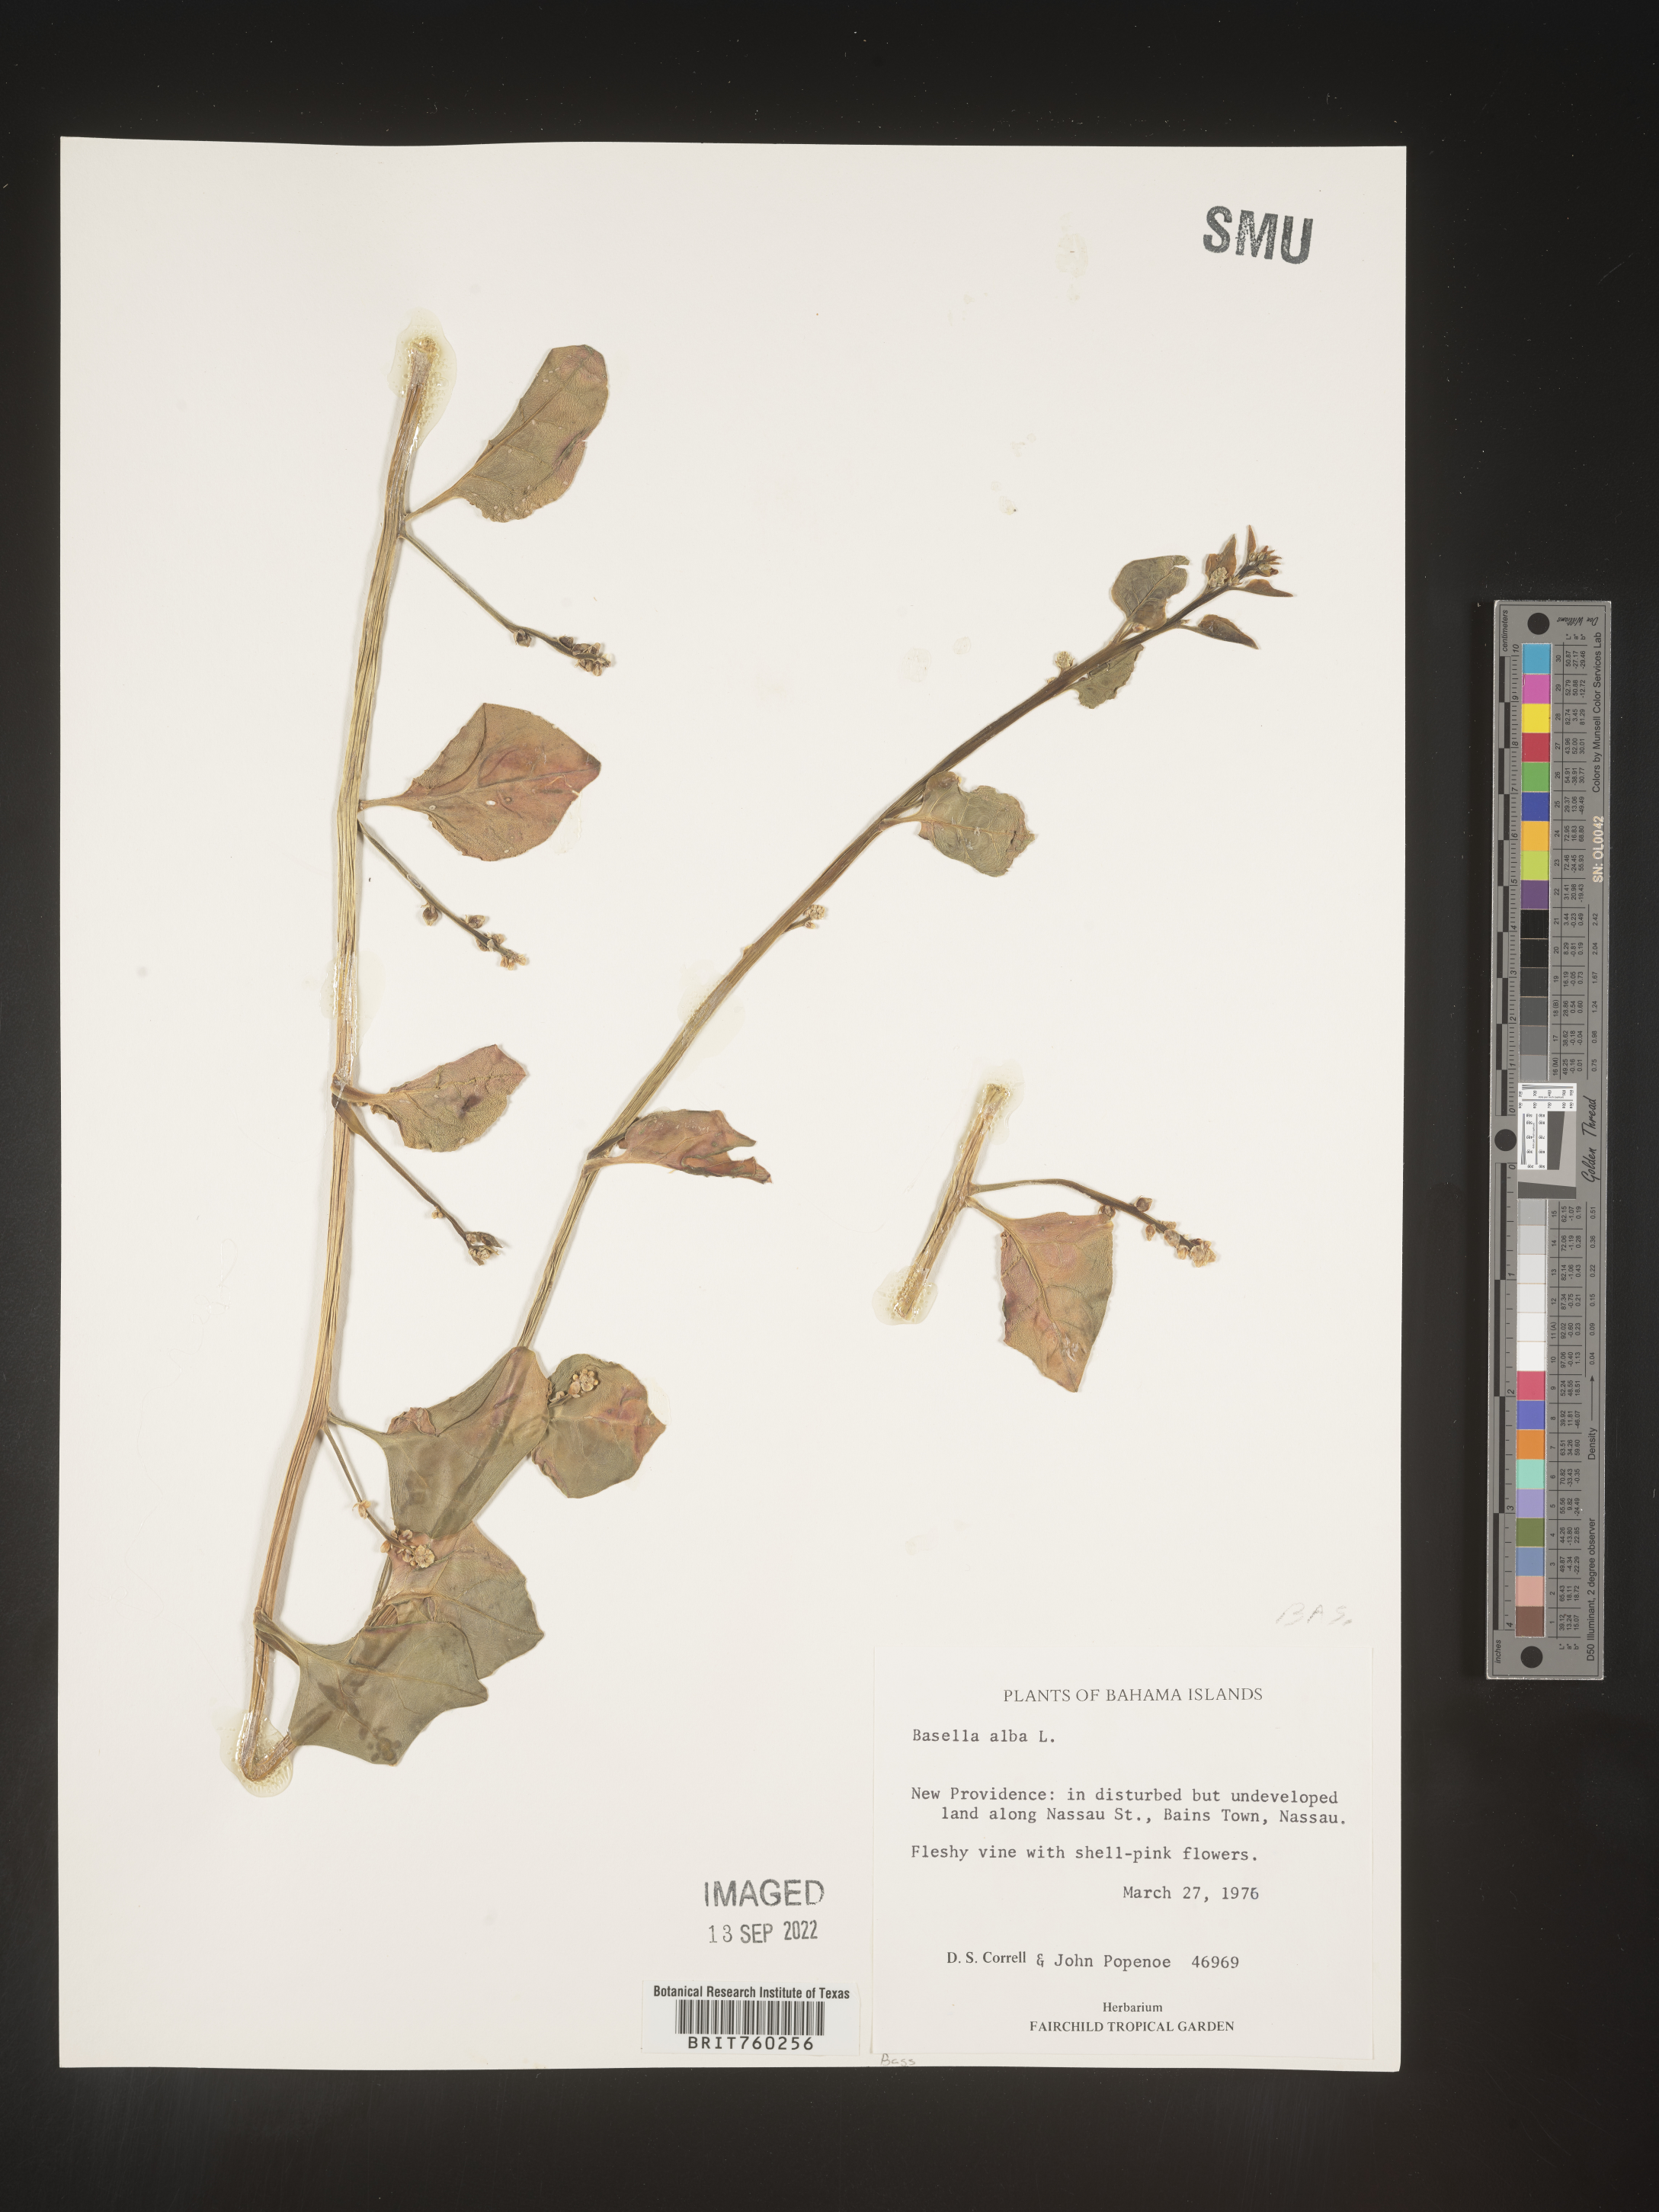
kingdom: Plantae
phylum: Tracheophyta
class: Magnoliopsida
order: Caryophyllales
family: Basellaceae
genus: Basella
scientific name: Basella alba
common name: Indian spinach
